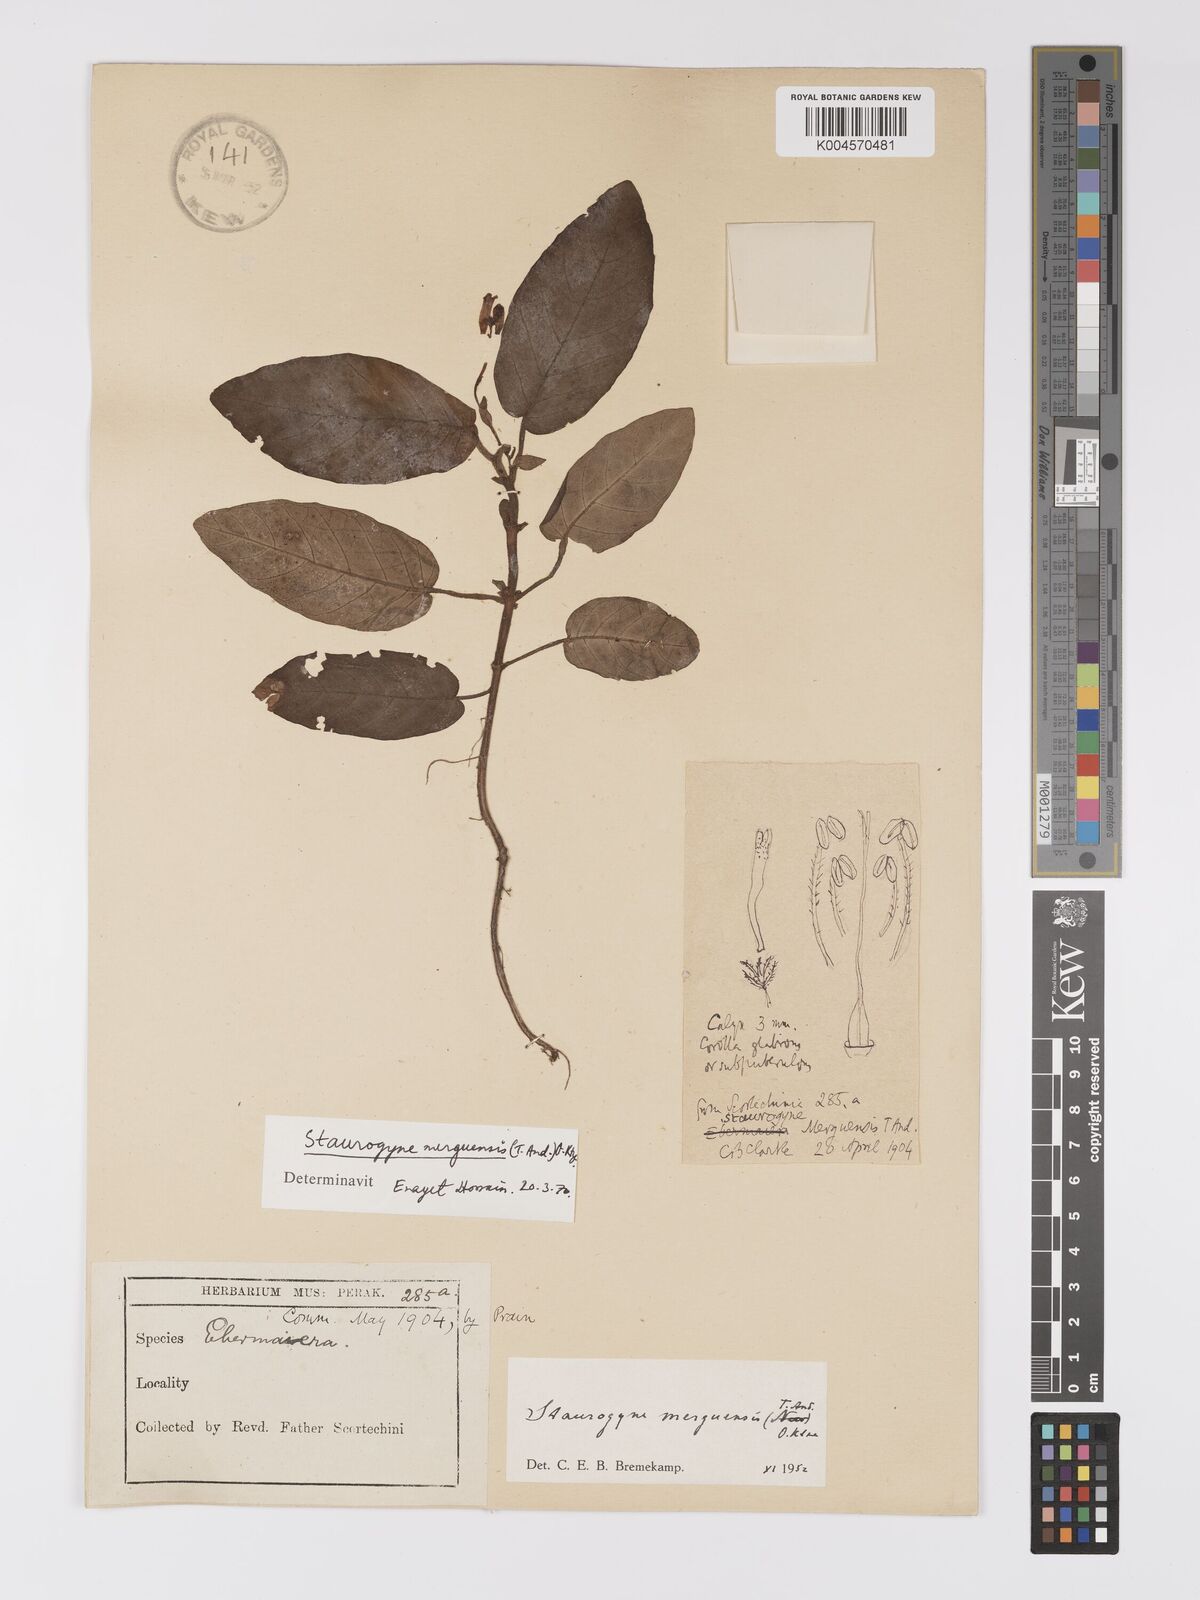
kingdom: Plantae
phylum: Tracheophyta
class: Magnoliopsida
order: Lamiales
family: Acanthaceae
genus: Staurogyne
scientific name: Staurogyne merguensis
